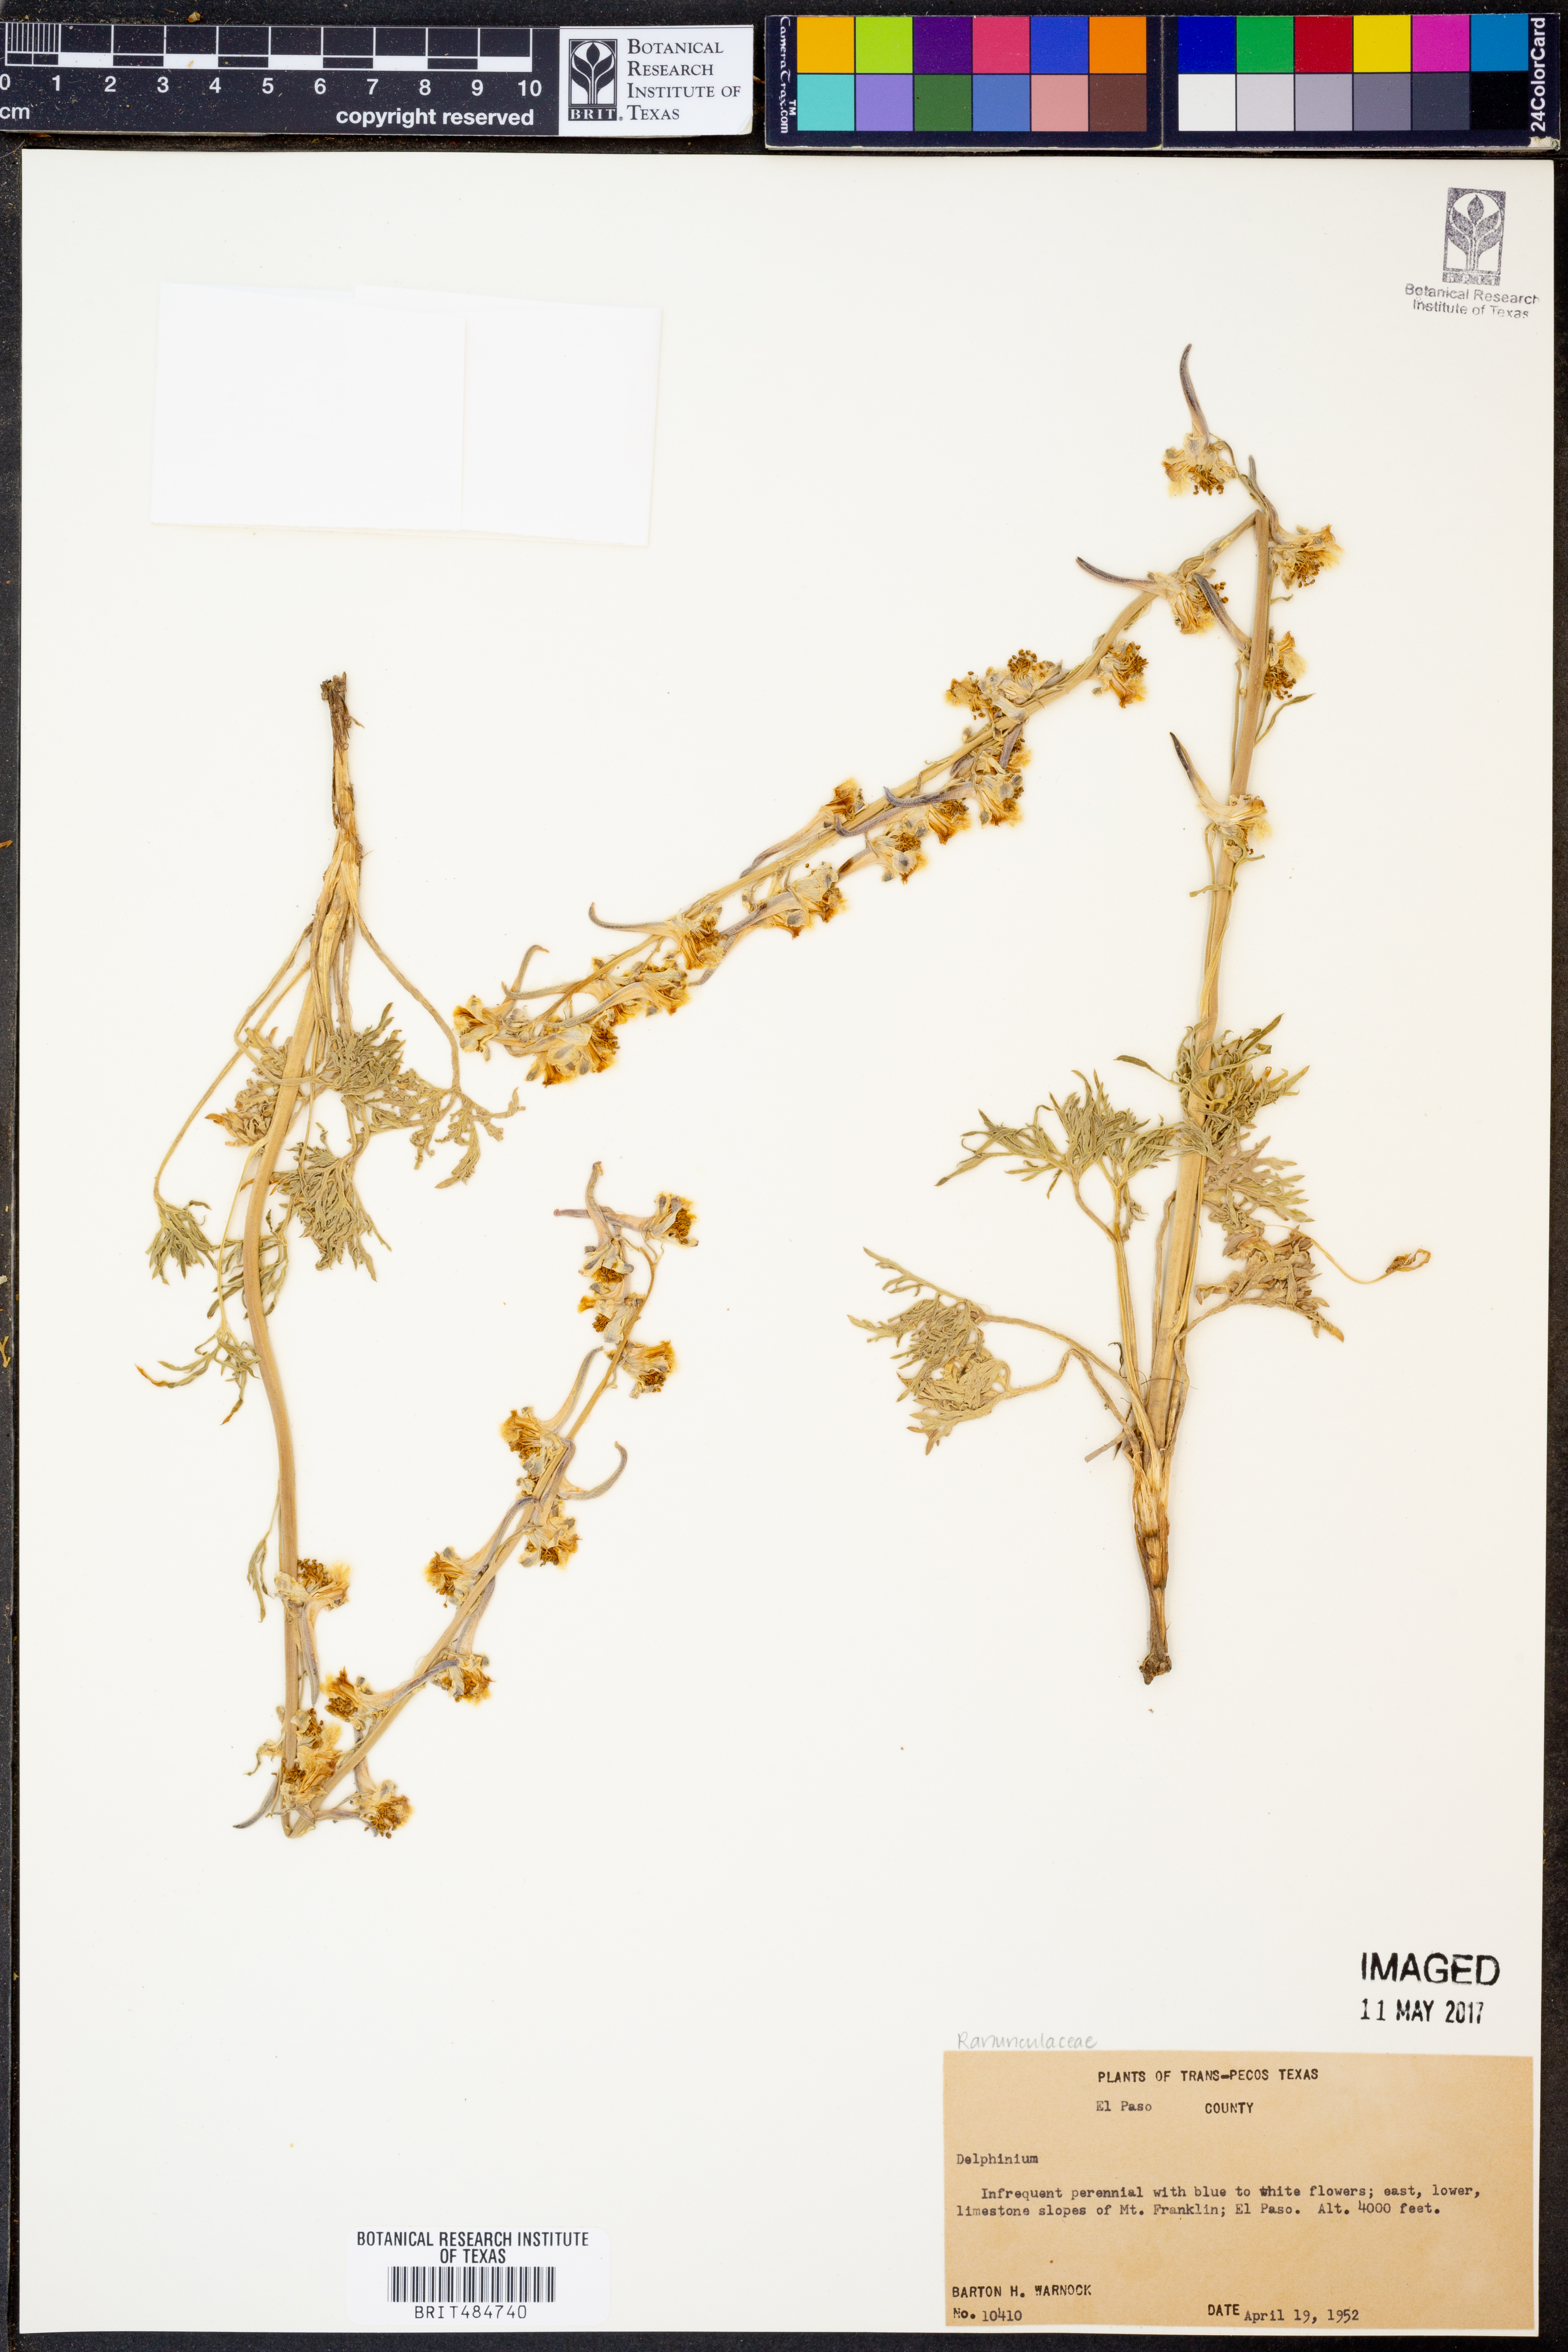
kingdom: Plantae
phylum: Tracheophyta
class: Magnoliopsida
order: Ranunculales
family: Ranunculaceae
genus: Delphinium
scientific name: Delphinium
